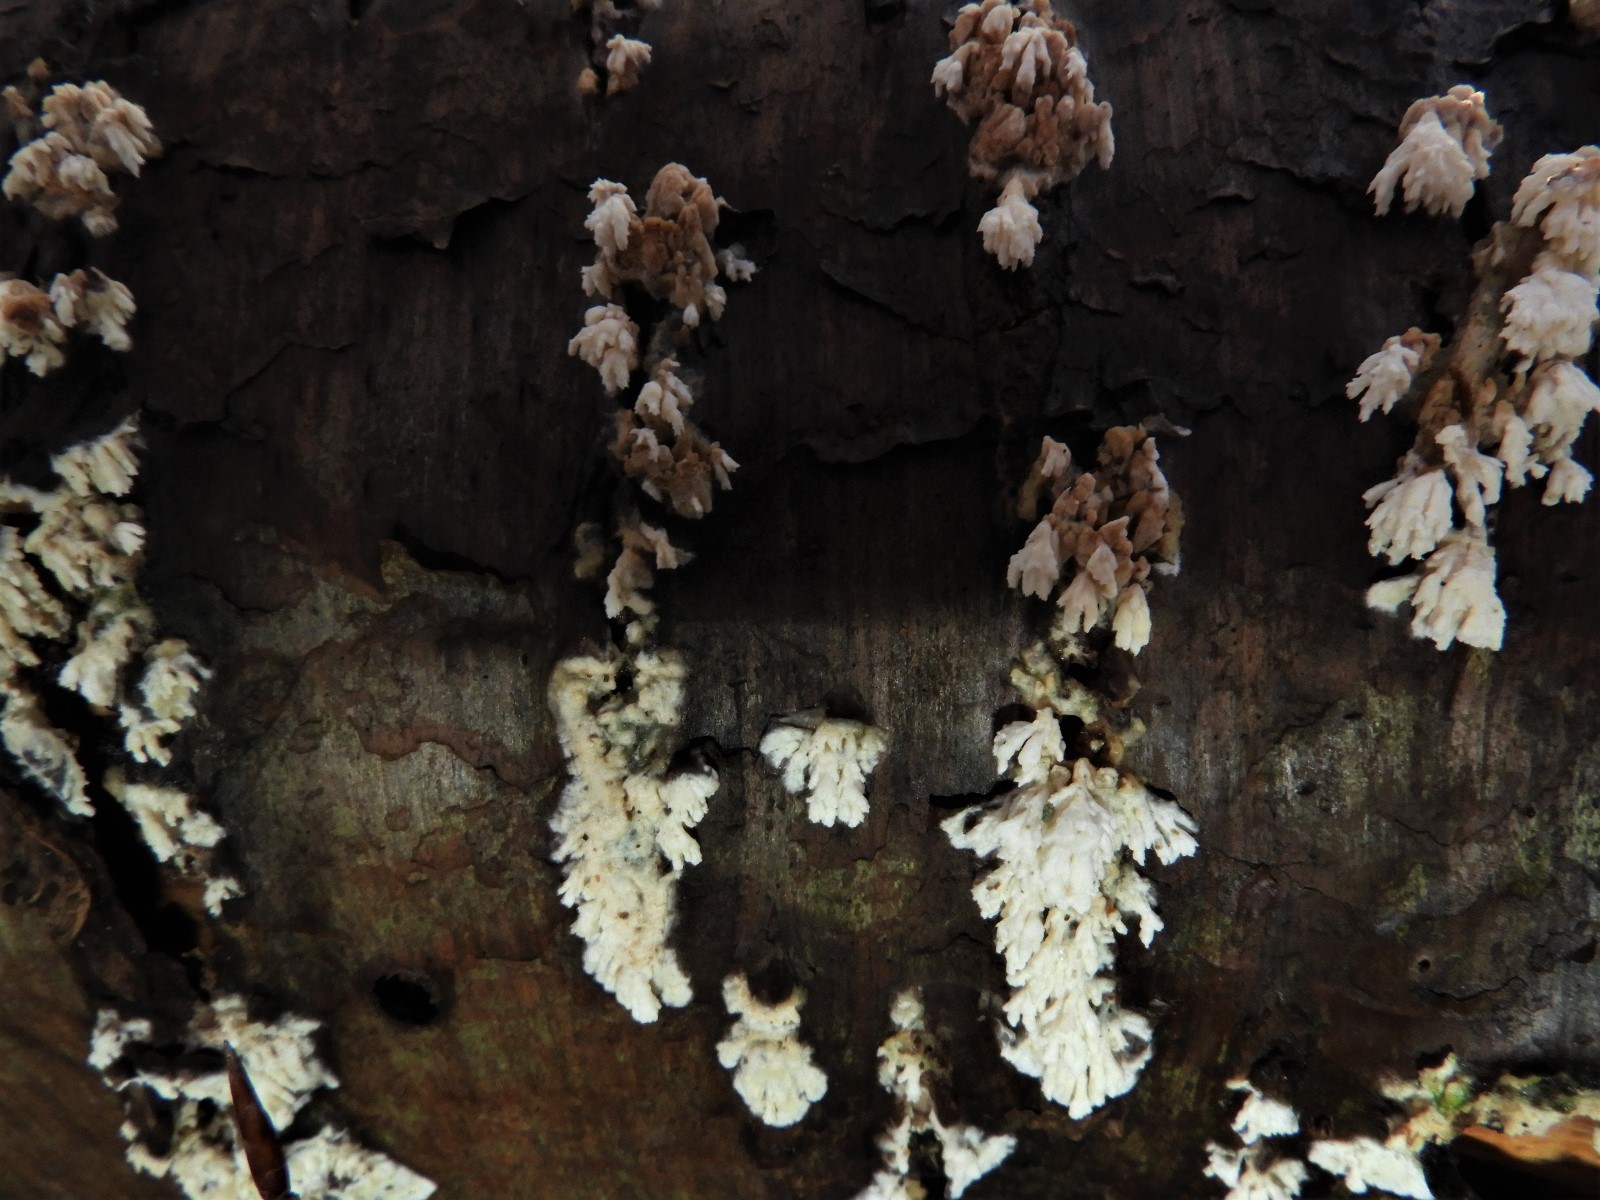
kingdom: Fungi
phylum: Basidiomycota
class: Agaricomycetes
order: Hymenochaetales
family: Schizoporaceae
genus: Xylodon
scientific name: Xylodon radula
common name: grovtandet kalkskind
